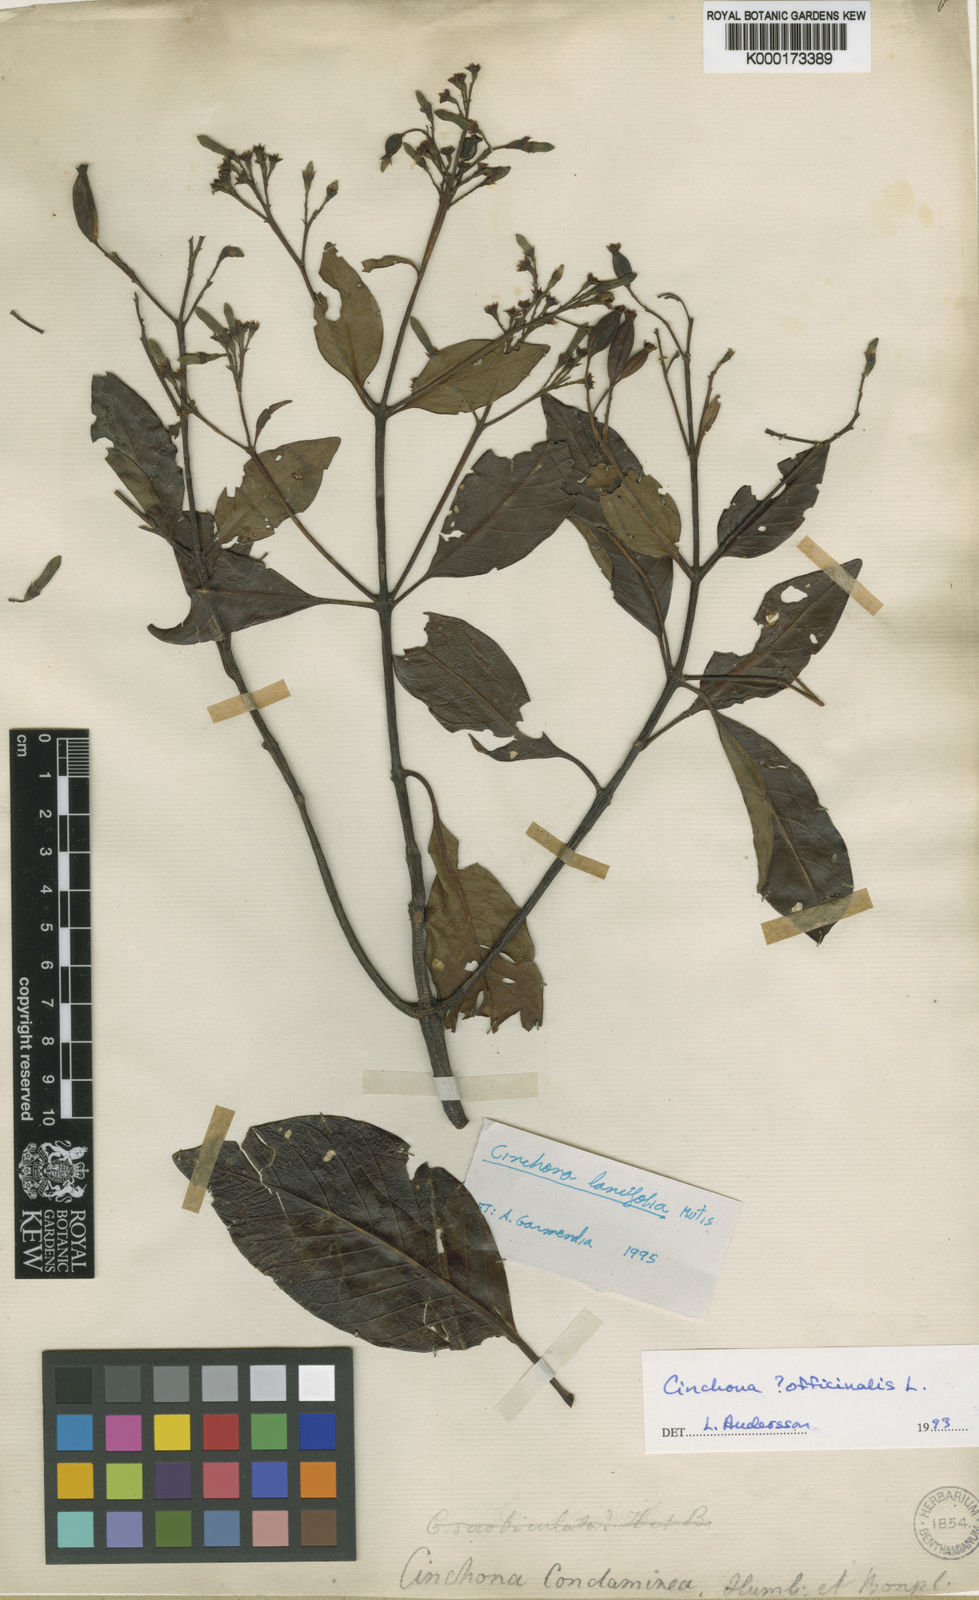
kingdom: Plantae
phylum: Tracheophyta
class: Magnoliopsida
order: Gentianales
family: Rubiaceae
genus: Cinchona
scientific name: Cinchona officinalis
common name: Lojabark
